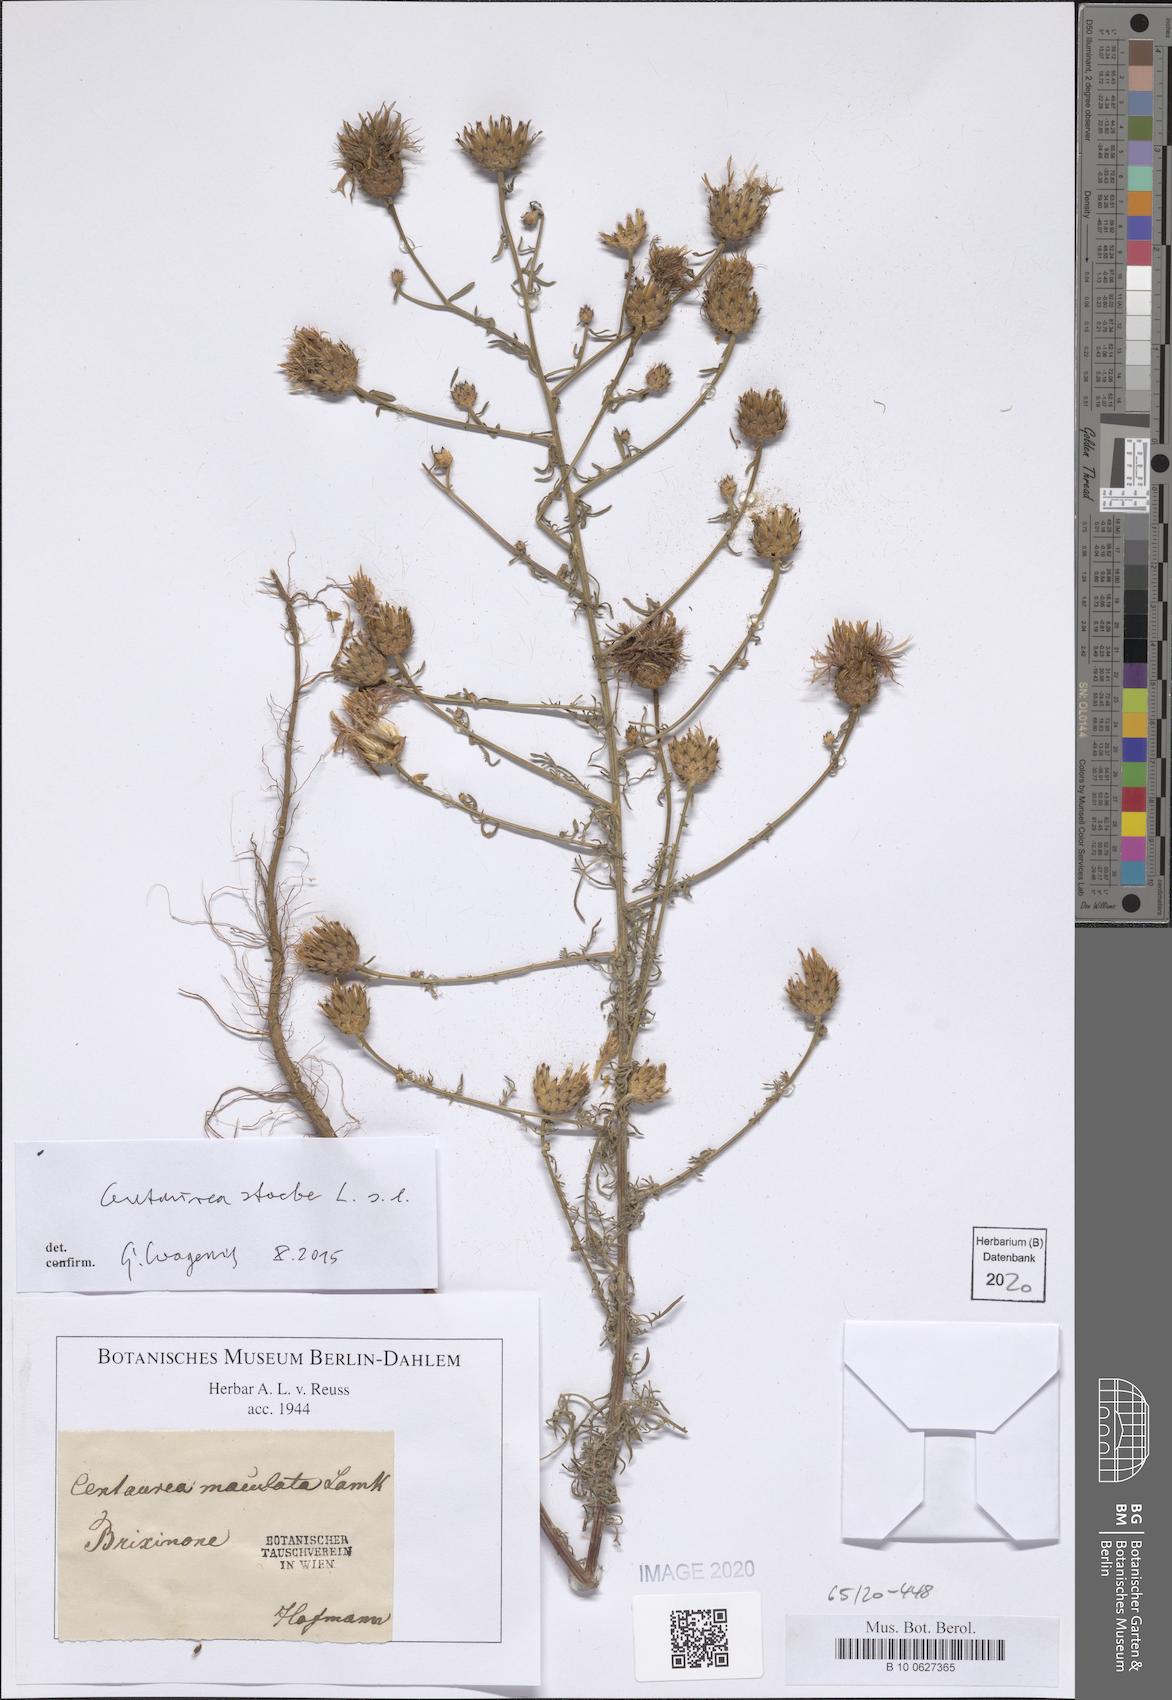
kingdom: Plantae
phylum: Tracheophyta
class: Magnoliopsida
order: Asterales
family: Asteraceae
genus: Centaurea
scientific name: Centaurea stoebe
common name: Spotted knapweed
